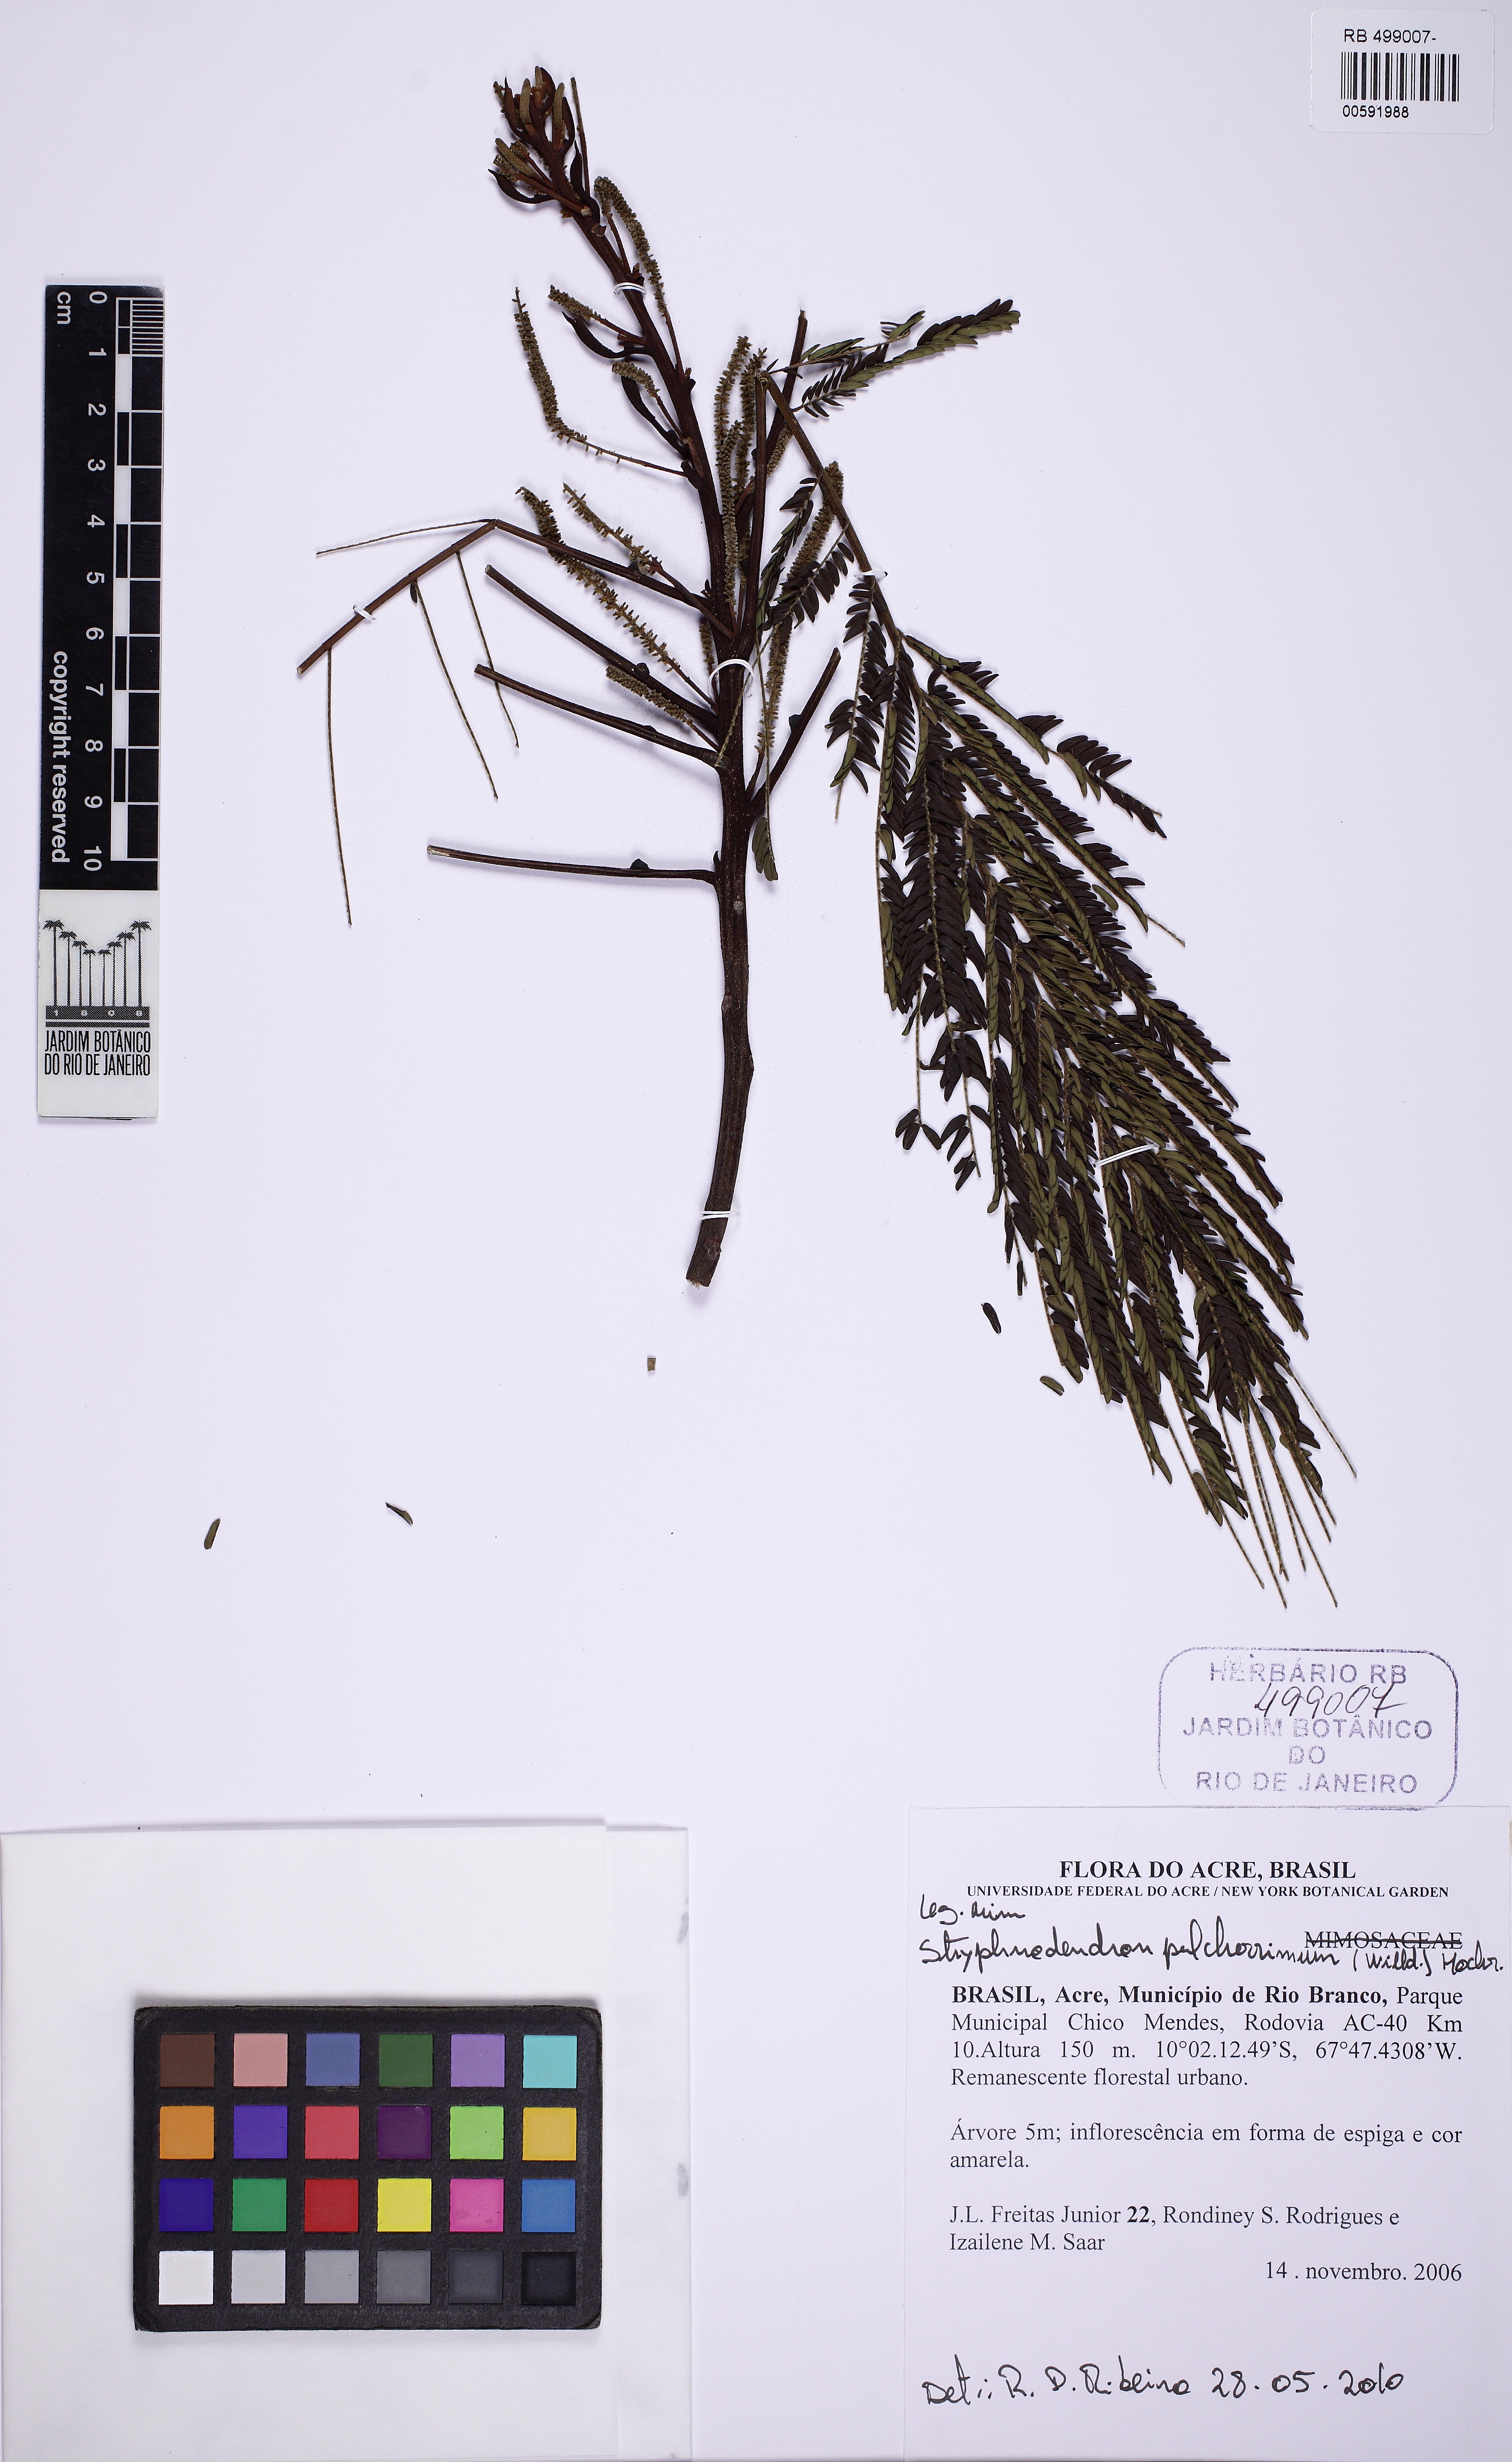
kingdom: Plantae
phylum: Tracheophyta
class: Magnoliopsida
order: Fabales
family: Fabaceae
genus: Stryphnodendron
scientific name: Stryphnodendron pulcherrimum
